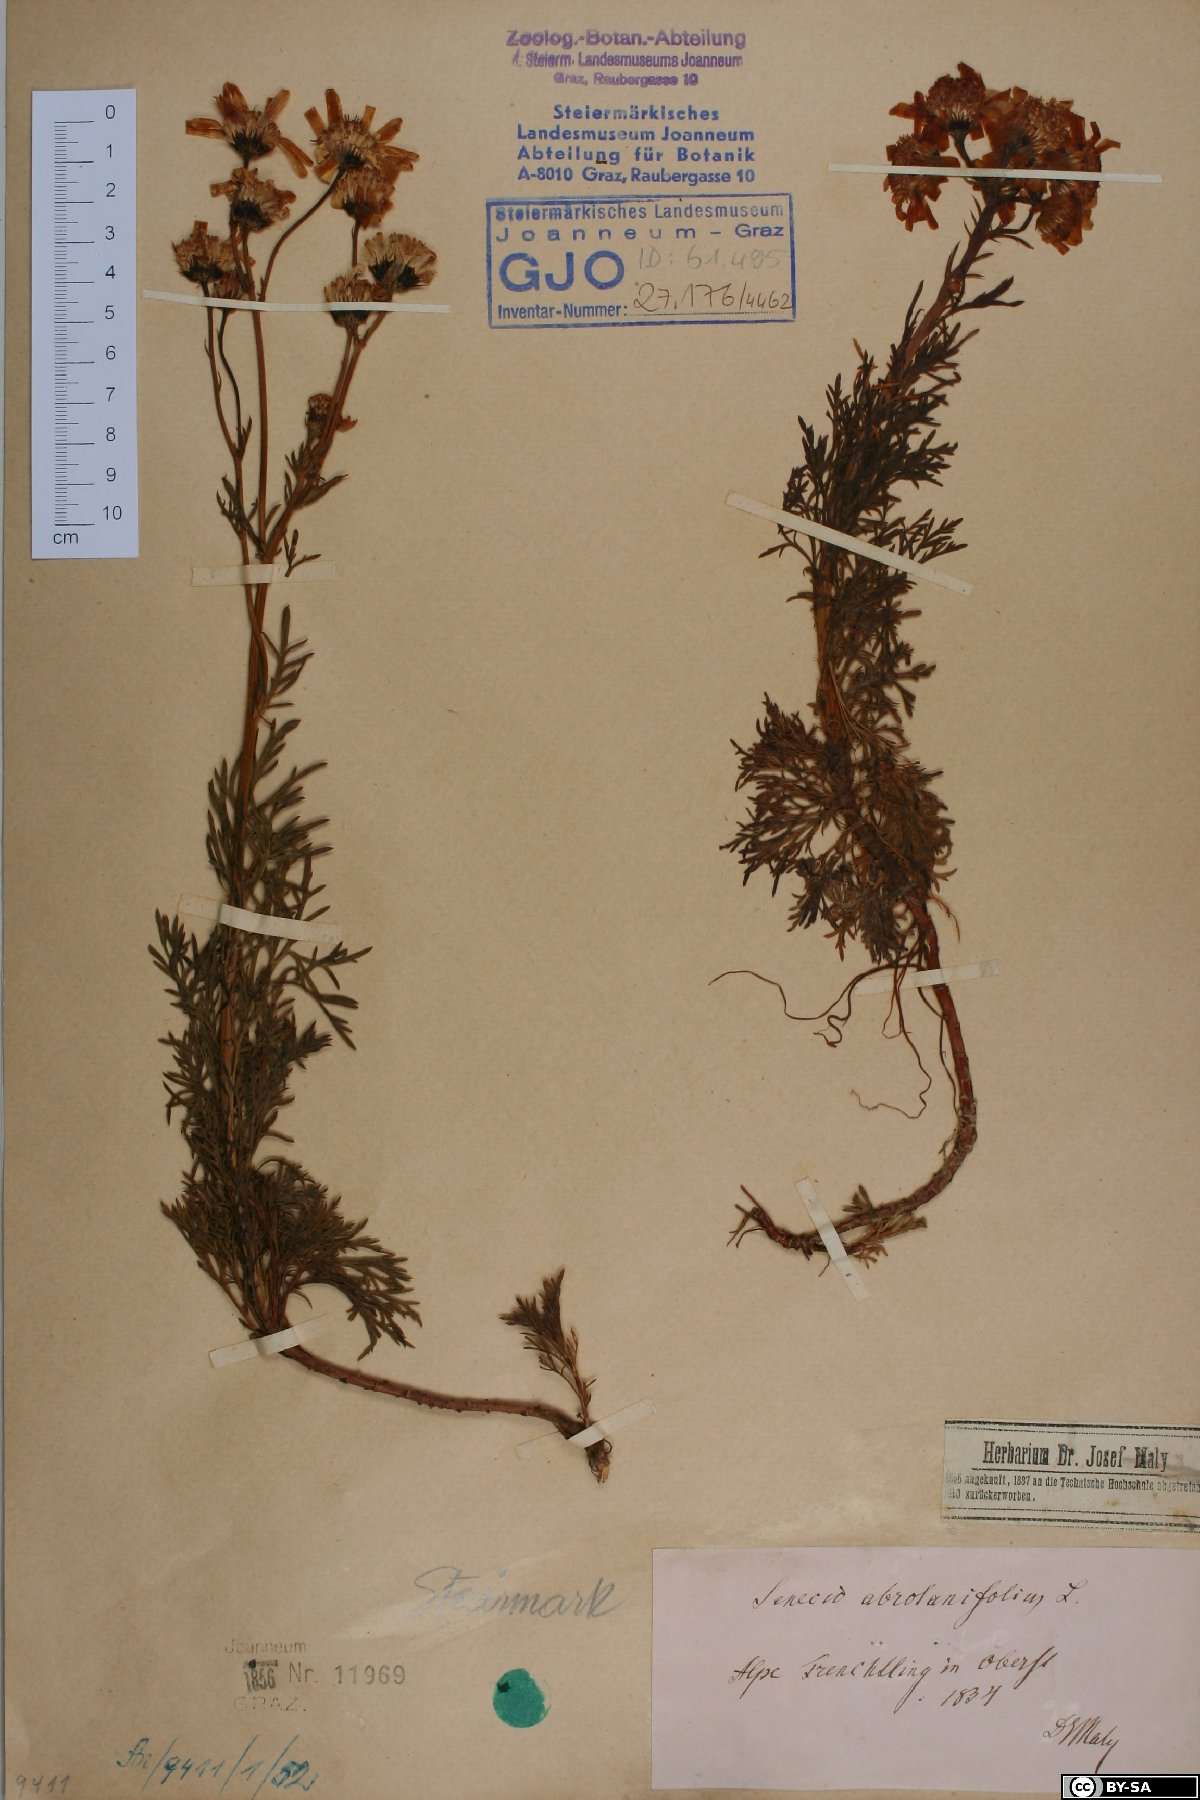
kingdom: Plantae
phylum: Tracheophyta
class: Magnoliopsida
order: Asterales
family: Asteraceae
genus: Jacobaea
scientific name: Jacobaea abrotanifolia
